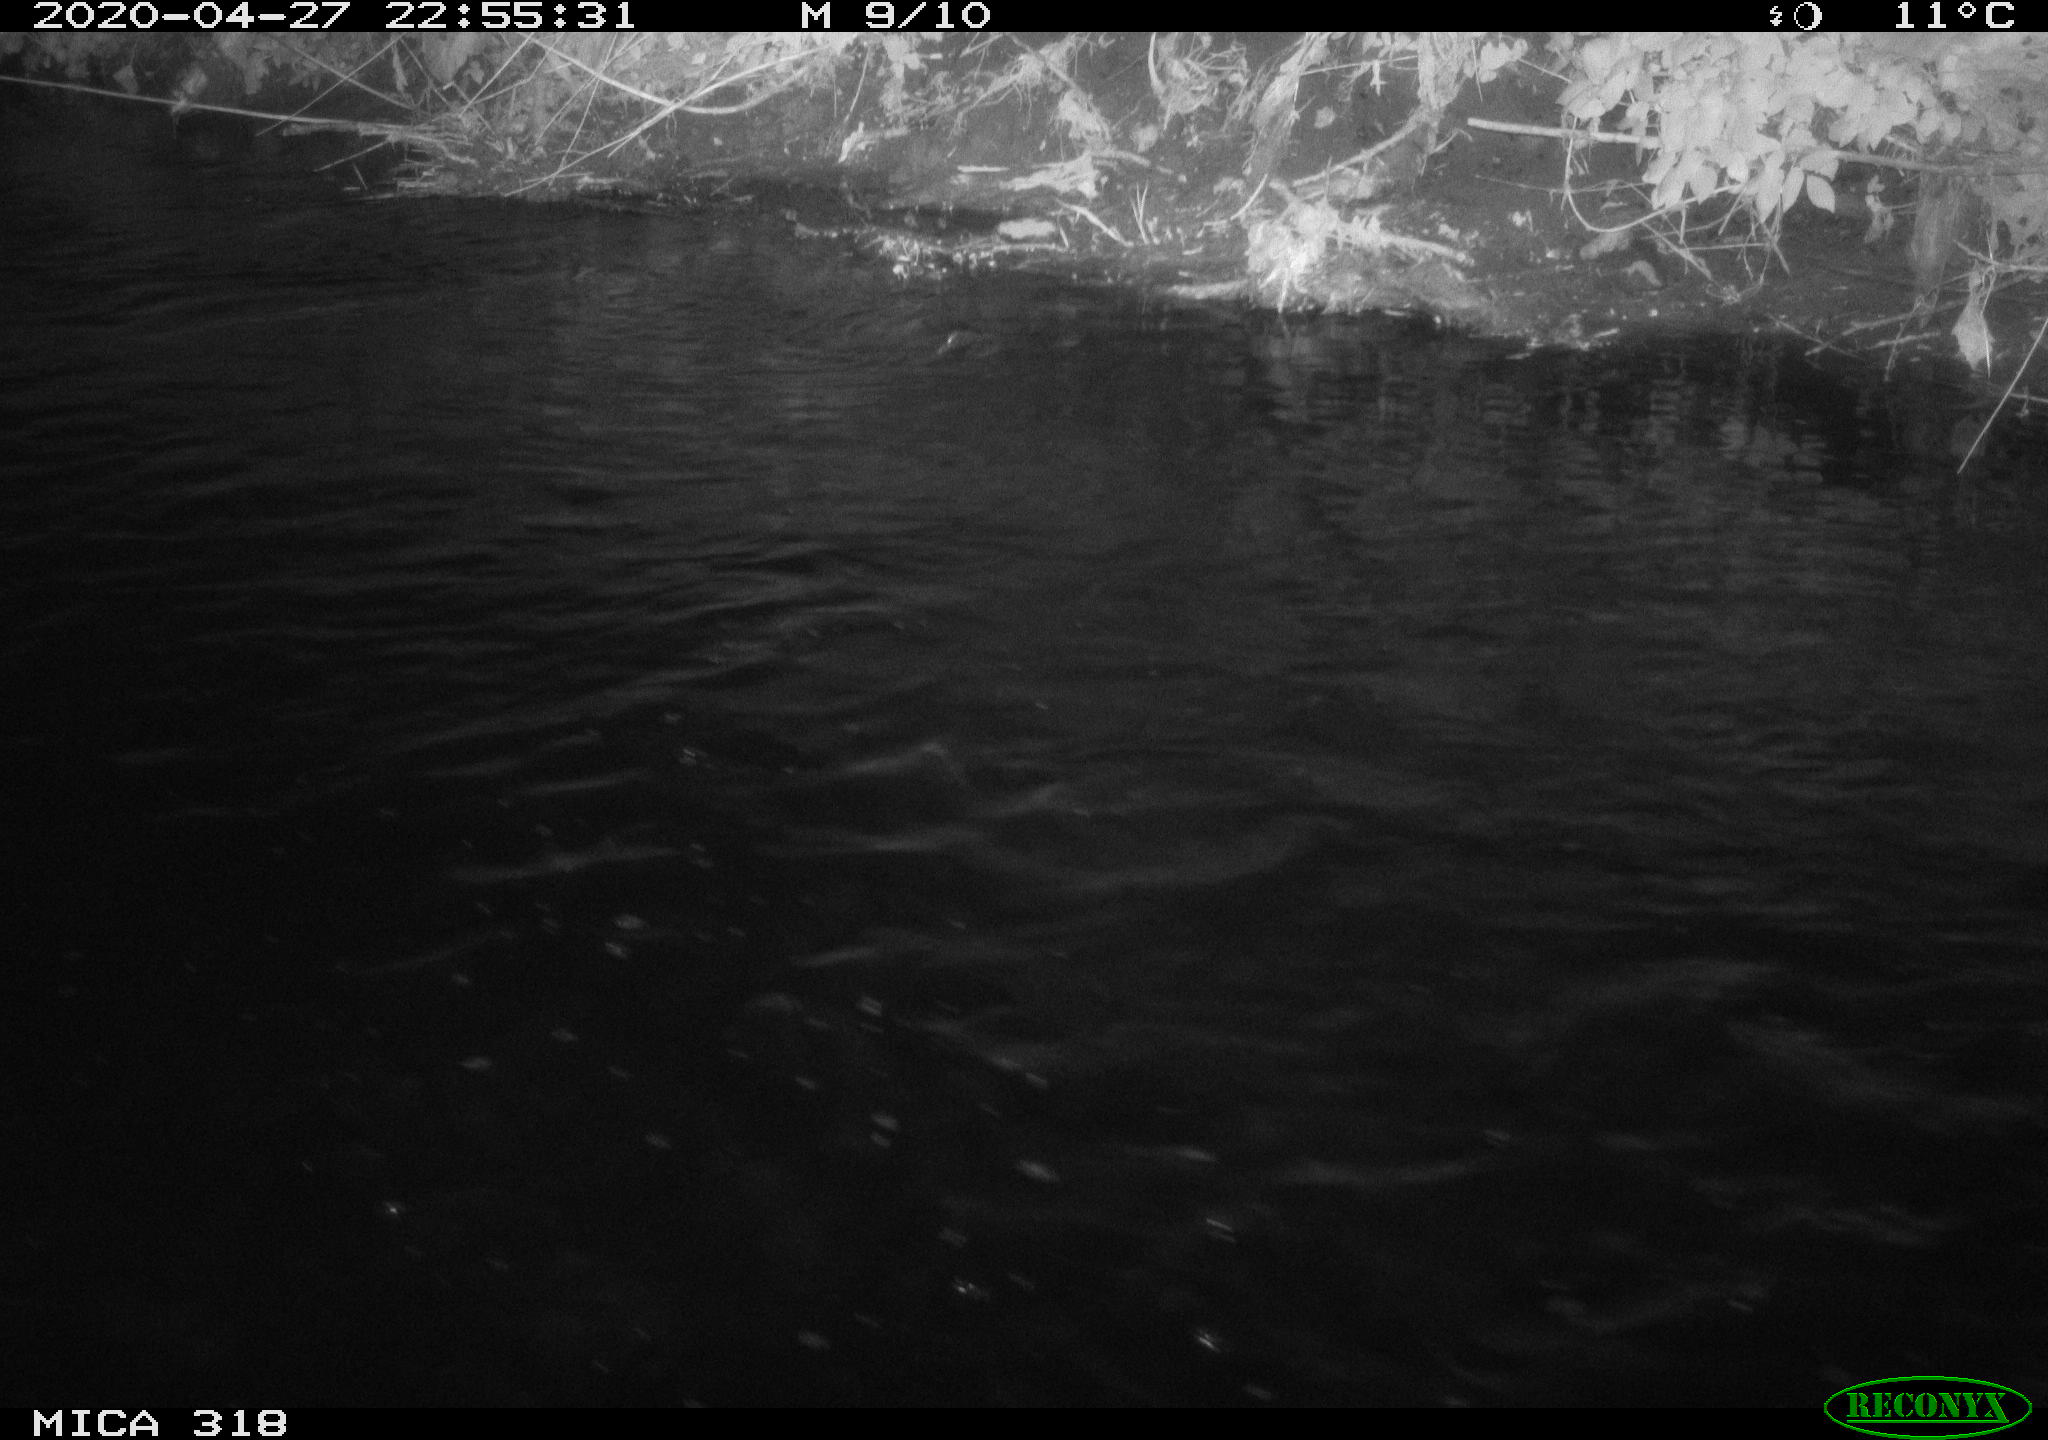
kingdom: Animalia
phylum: Chordata
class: Aves
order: Pelecaniformes
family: Ardeidae
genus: Ardea
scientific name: Ardea cinerea
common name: Grey heron
